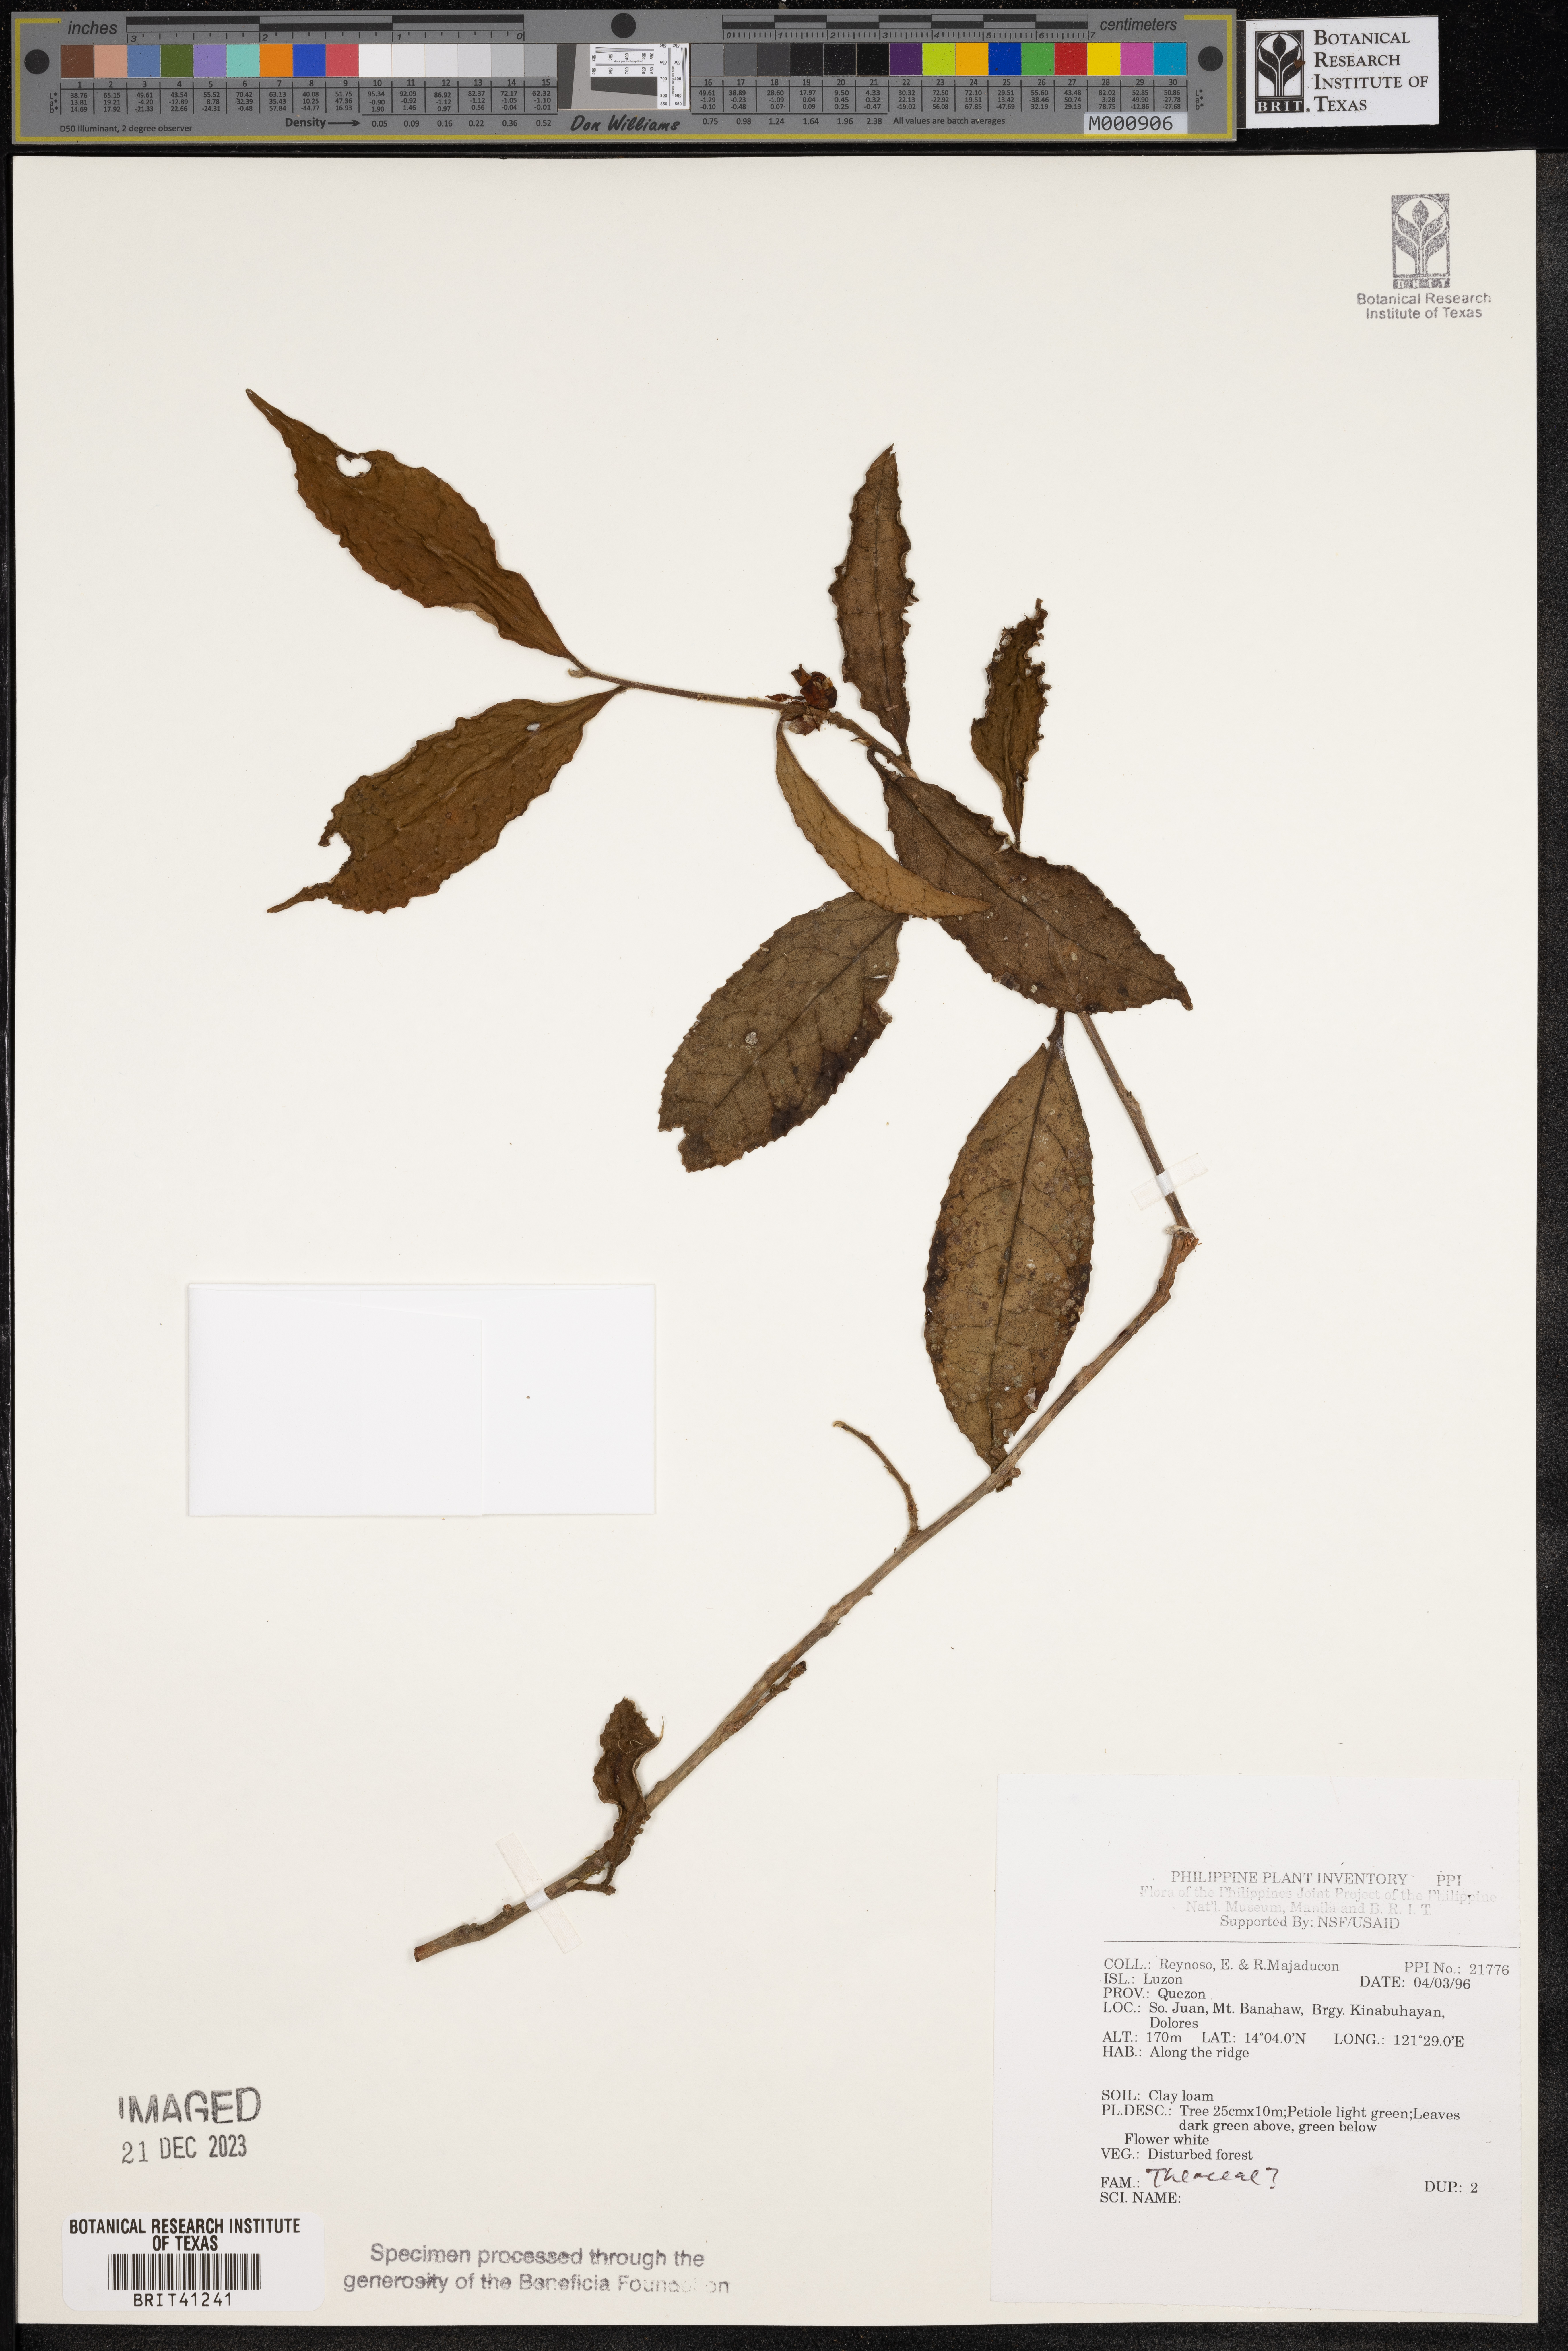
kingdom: Plantae
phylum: Tracheophyta
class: Magnoliopsida
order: Ericales
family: Theaceae
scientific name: Theaceae
